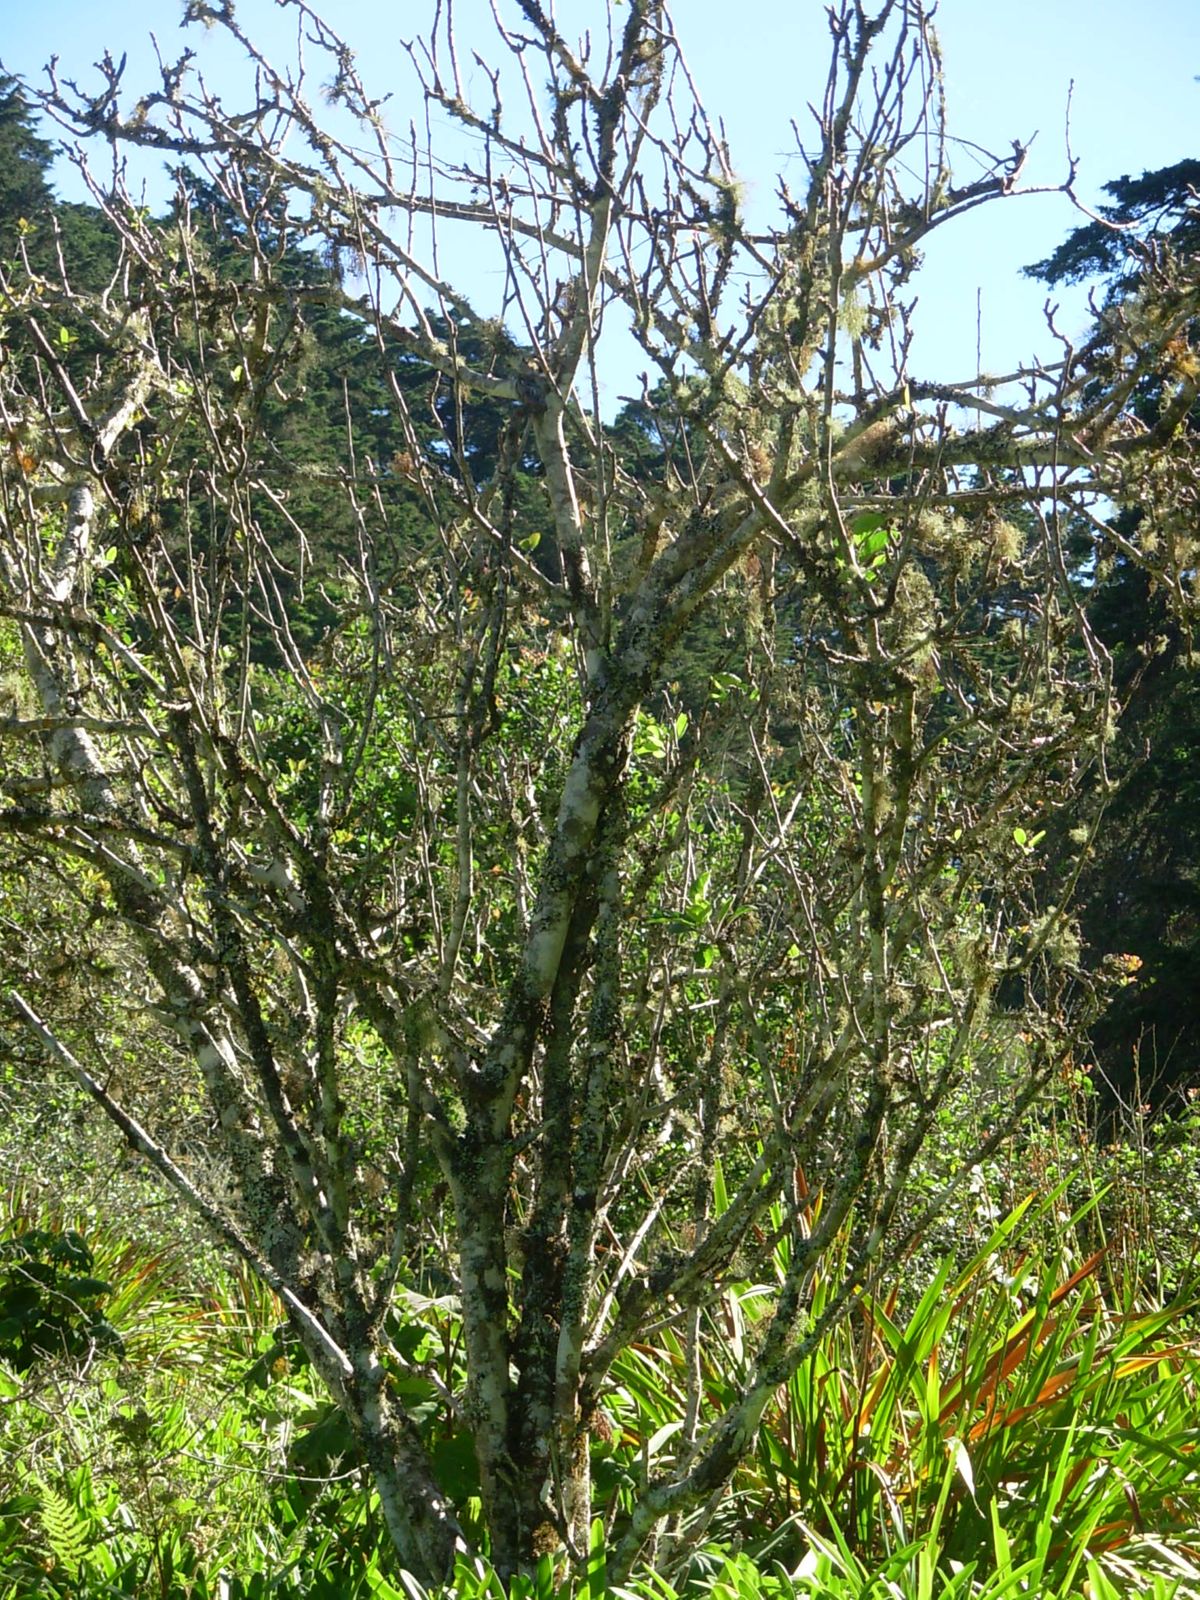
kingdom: Plantae
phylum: Tracheophyta
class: Magnoliopsida
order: Rosales
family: Rosaceae
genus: Malus
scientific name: Malus domestica
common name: Apple
